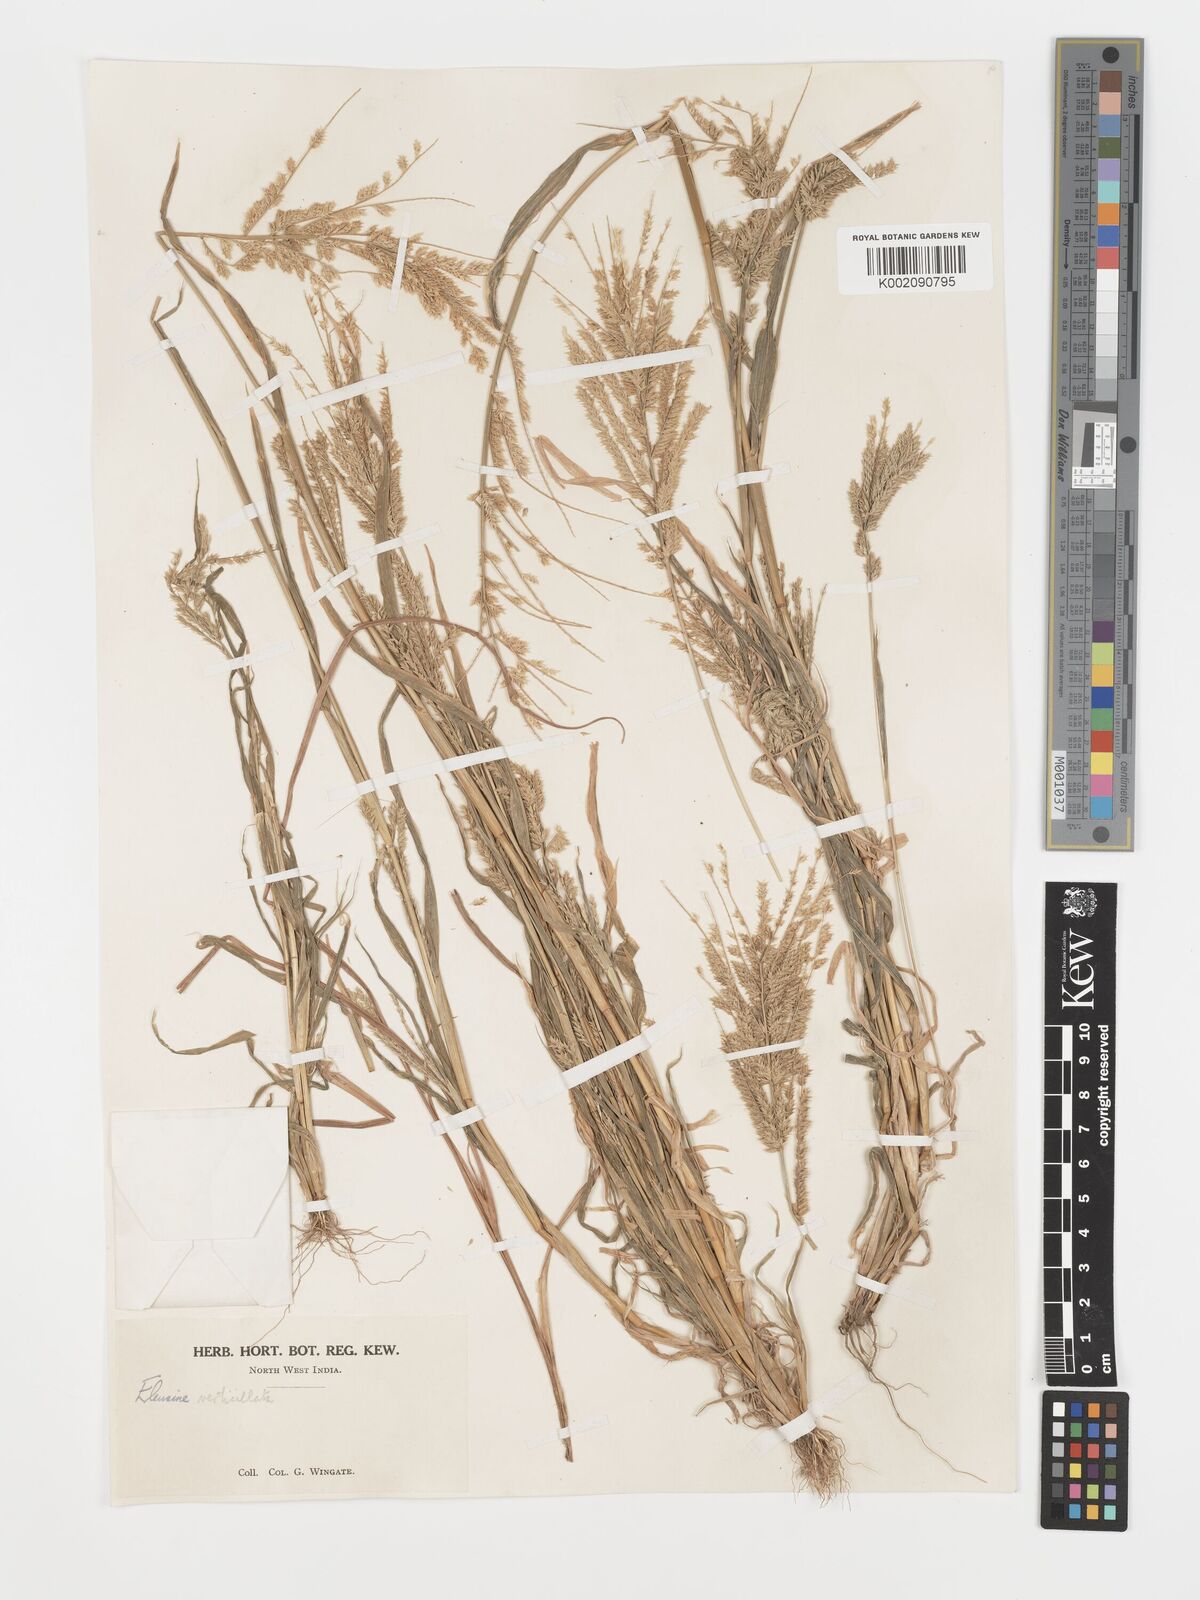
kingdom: Plantae
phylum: Tracheophyta
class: Liliopsida
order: Poales
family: Poaceae
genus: Acrachne
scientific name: Acrachne racemosa
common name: Goosegrass
